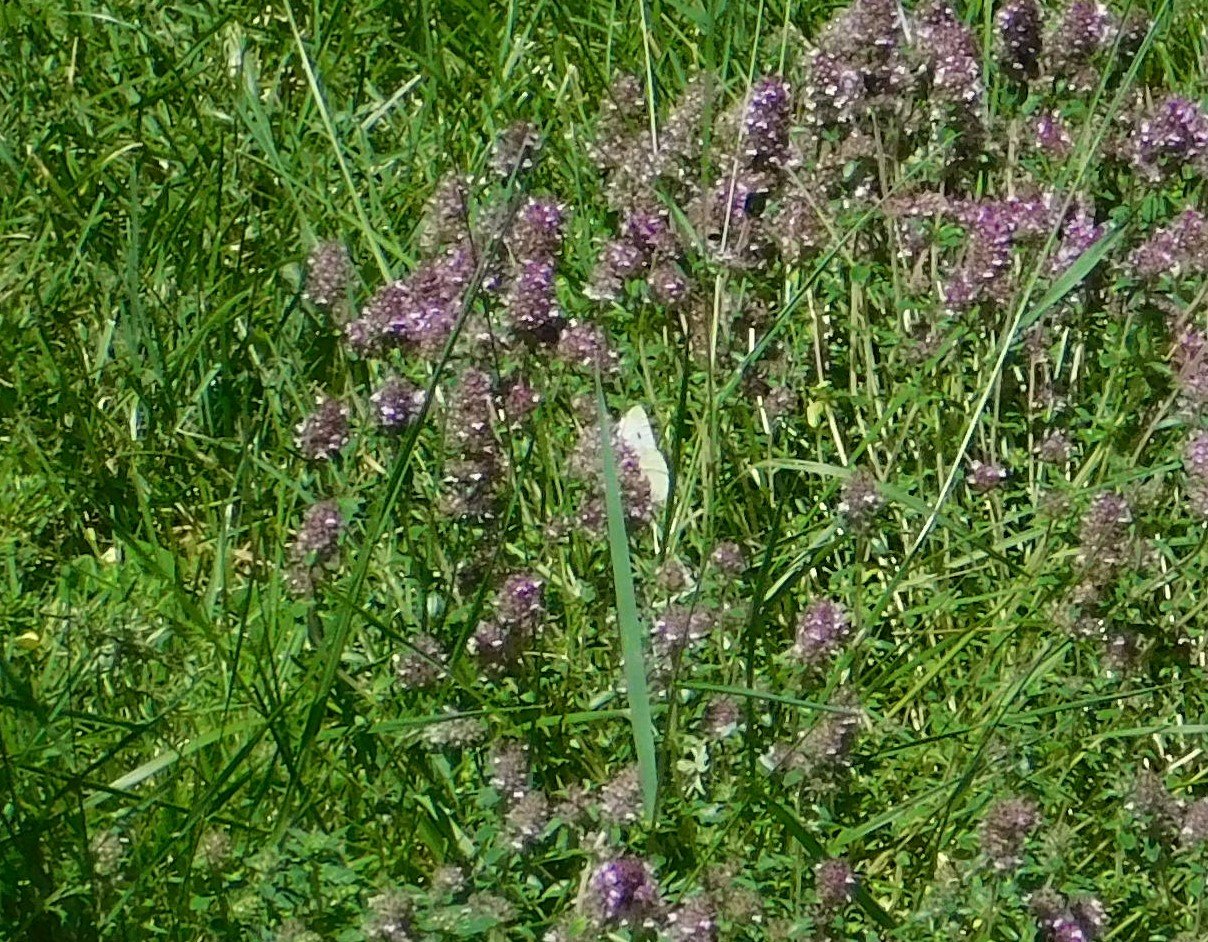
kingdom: Animalia
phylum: Arthropoda
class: Insecta
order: Lepidoptera
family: Pieridae
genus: Pieris
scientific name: Pieris rapae
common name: Cabbage White
